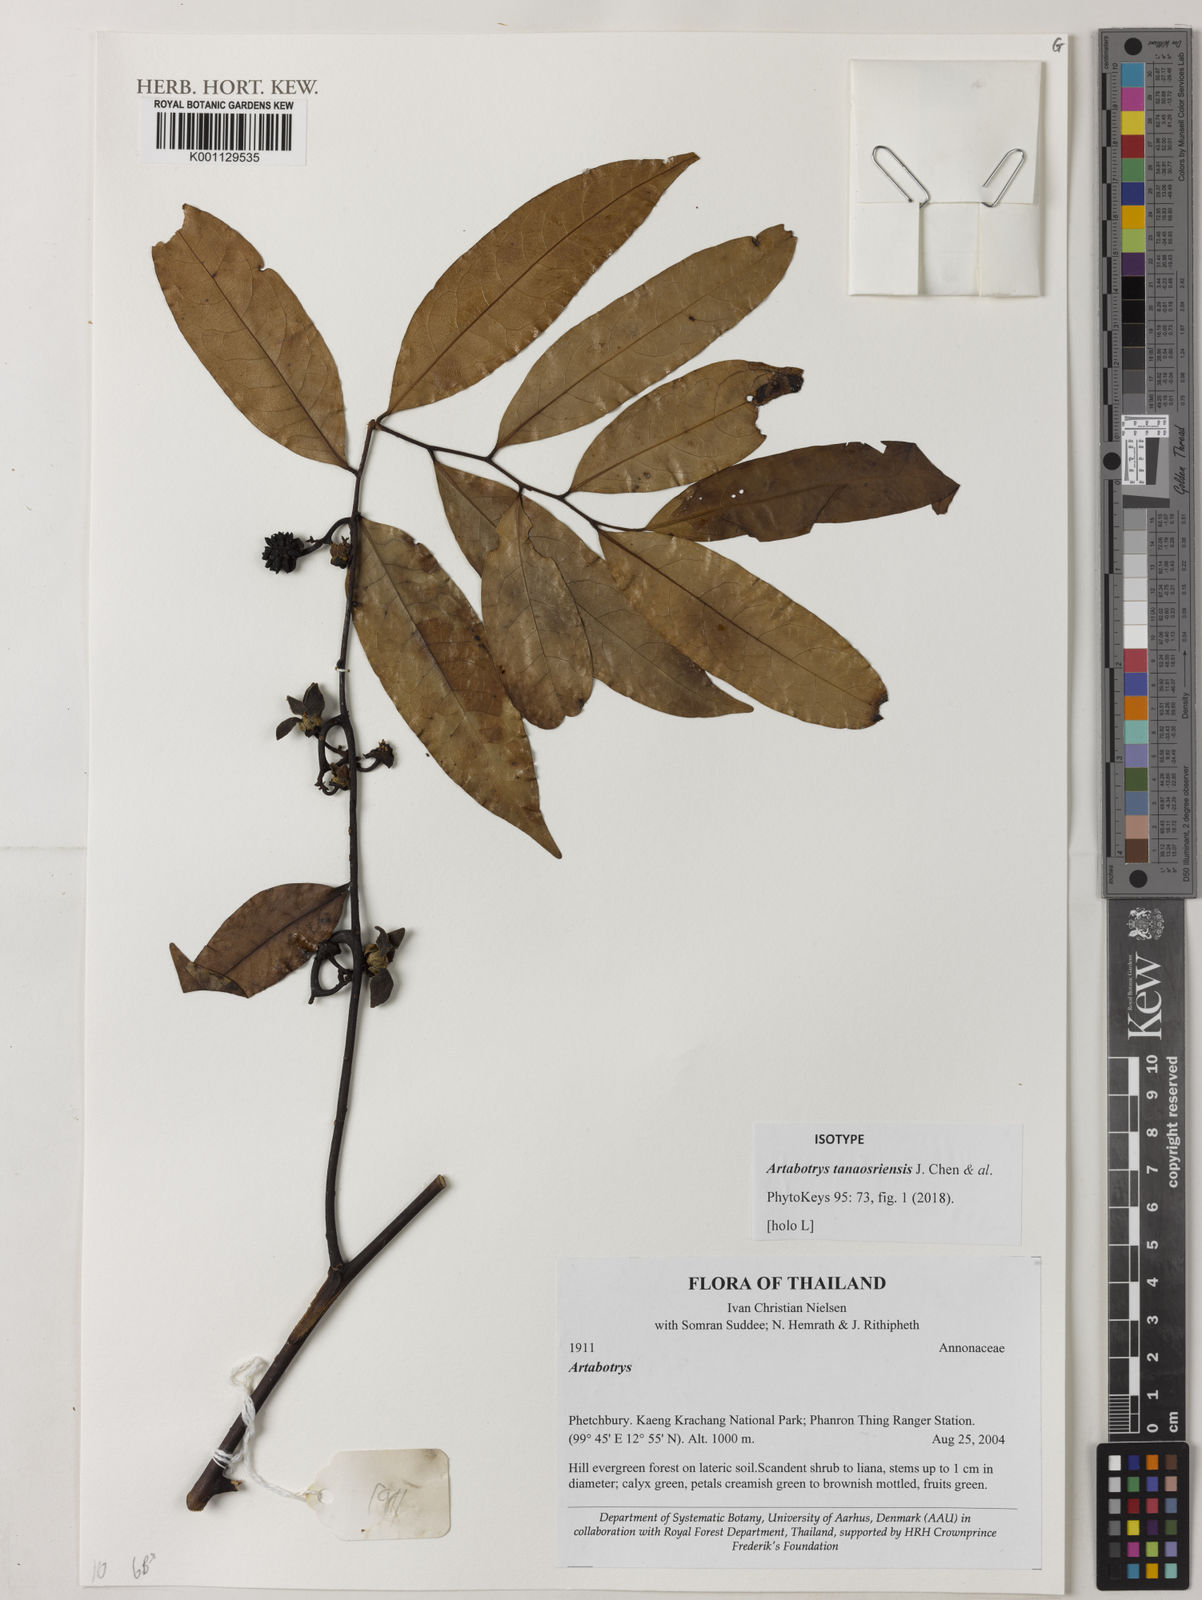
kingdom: Plantae
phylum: Tracheophyta
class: Magnoliopsida
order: Magnoliales
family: Annonaceae
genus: Artabotrys
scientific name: Artabotrys
